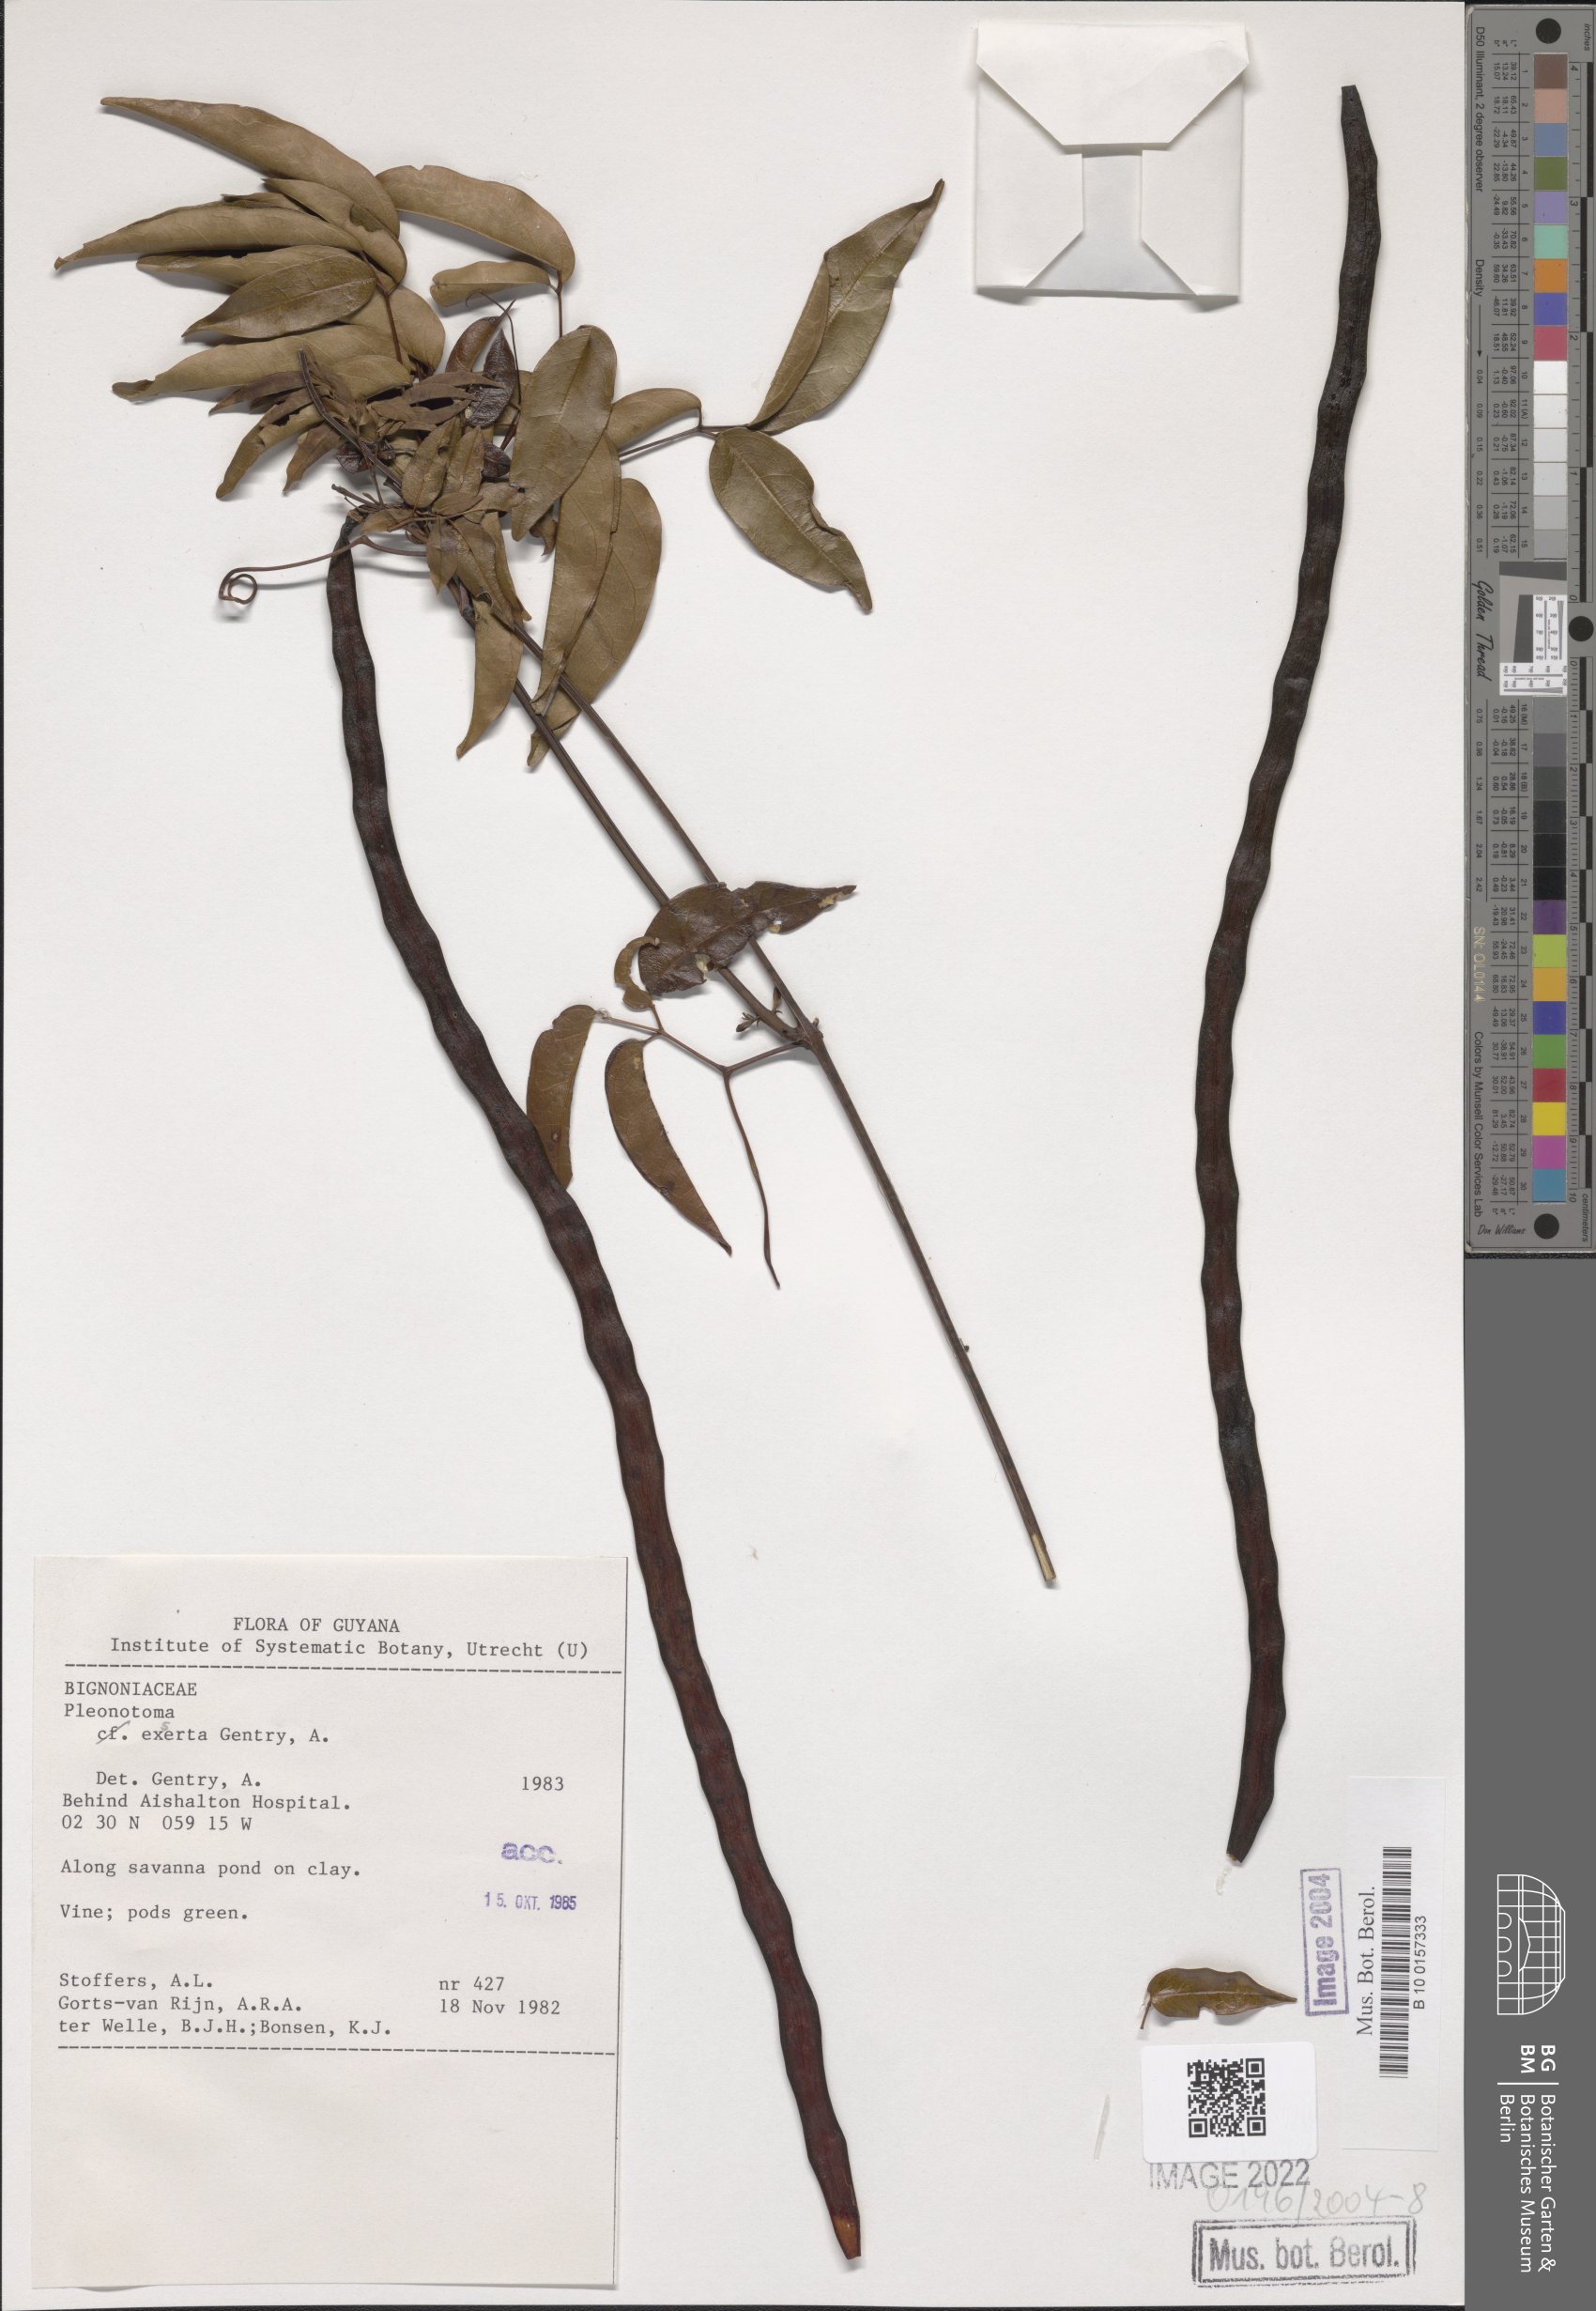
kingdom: Plantae
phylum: Tracheophyta
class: Magnoliopsida
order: Lamiales
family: Bignoniaceae
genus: Pleonotoma
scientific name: Pleonotoma exserta
